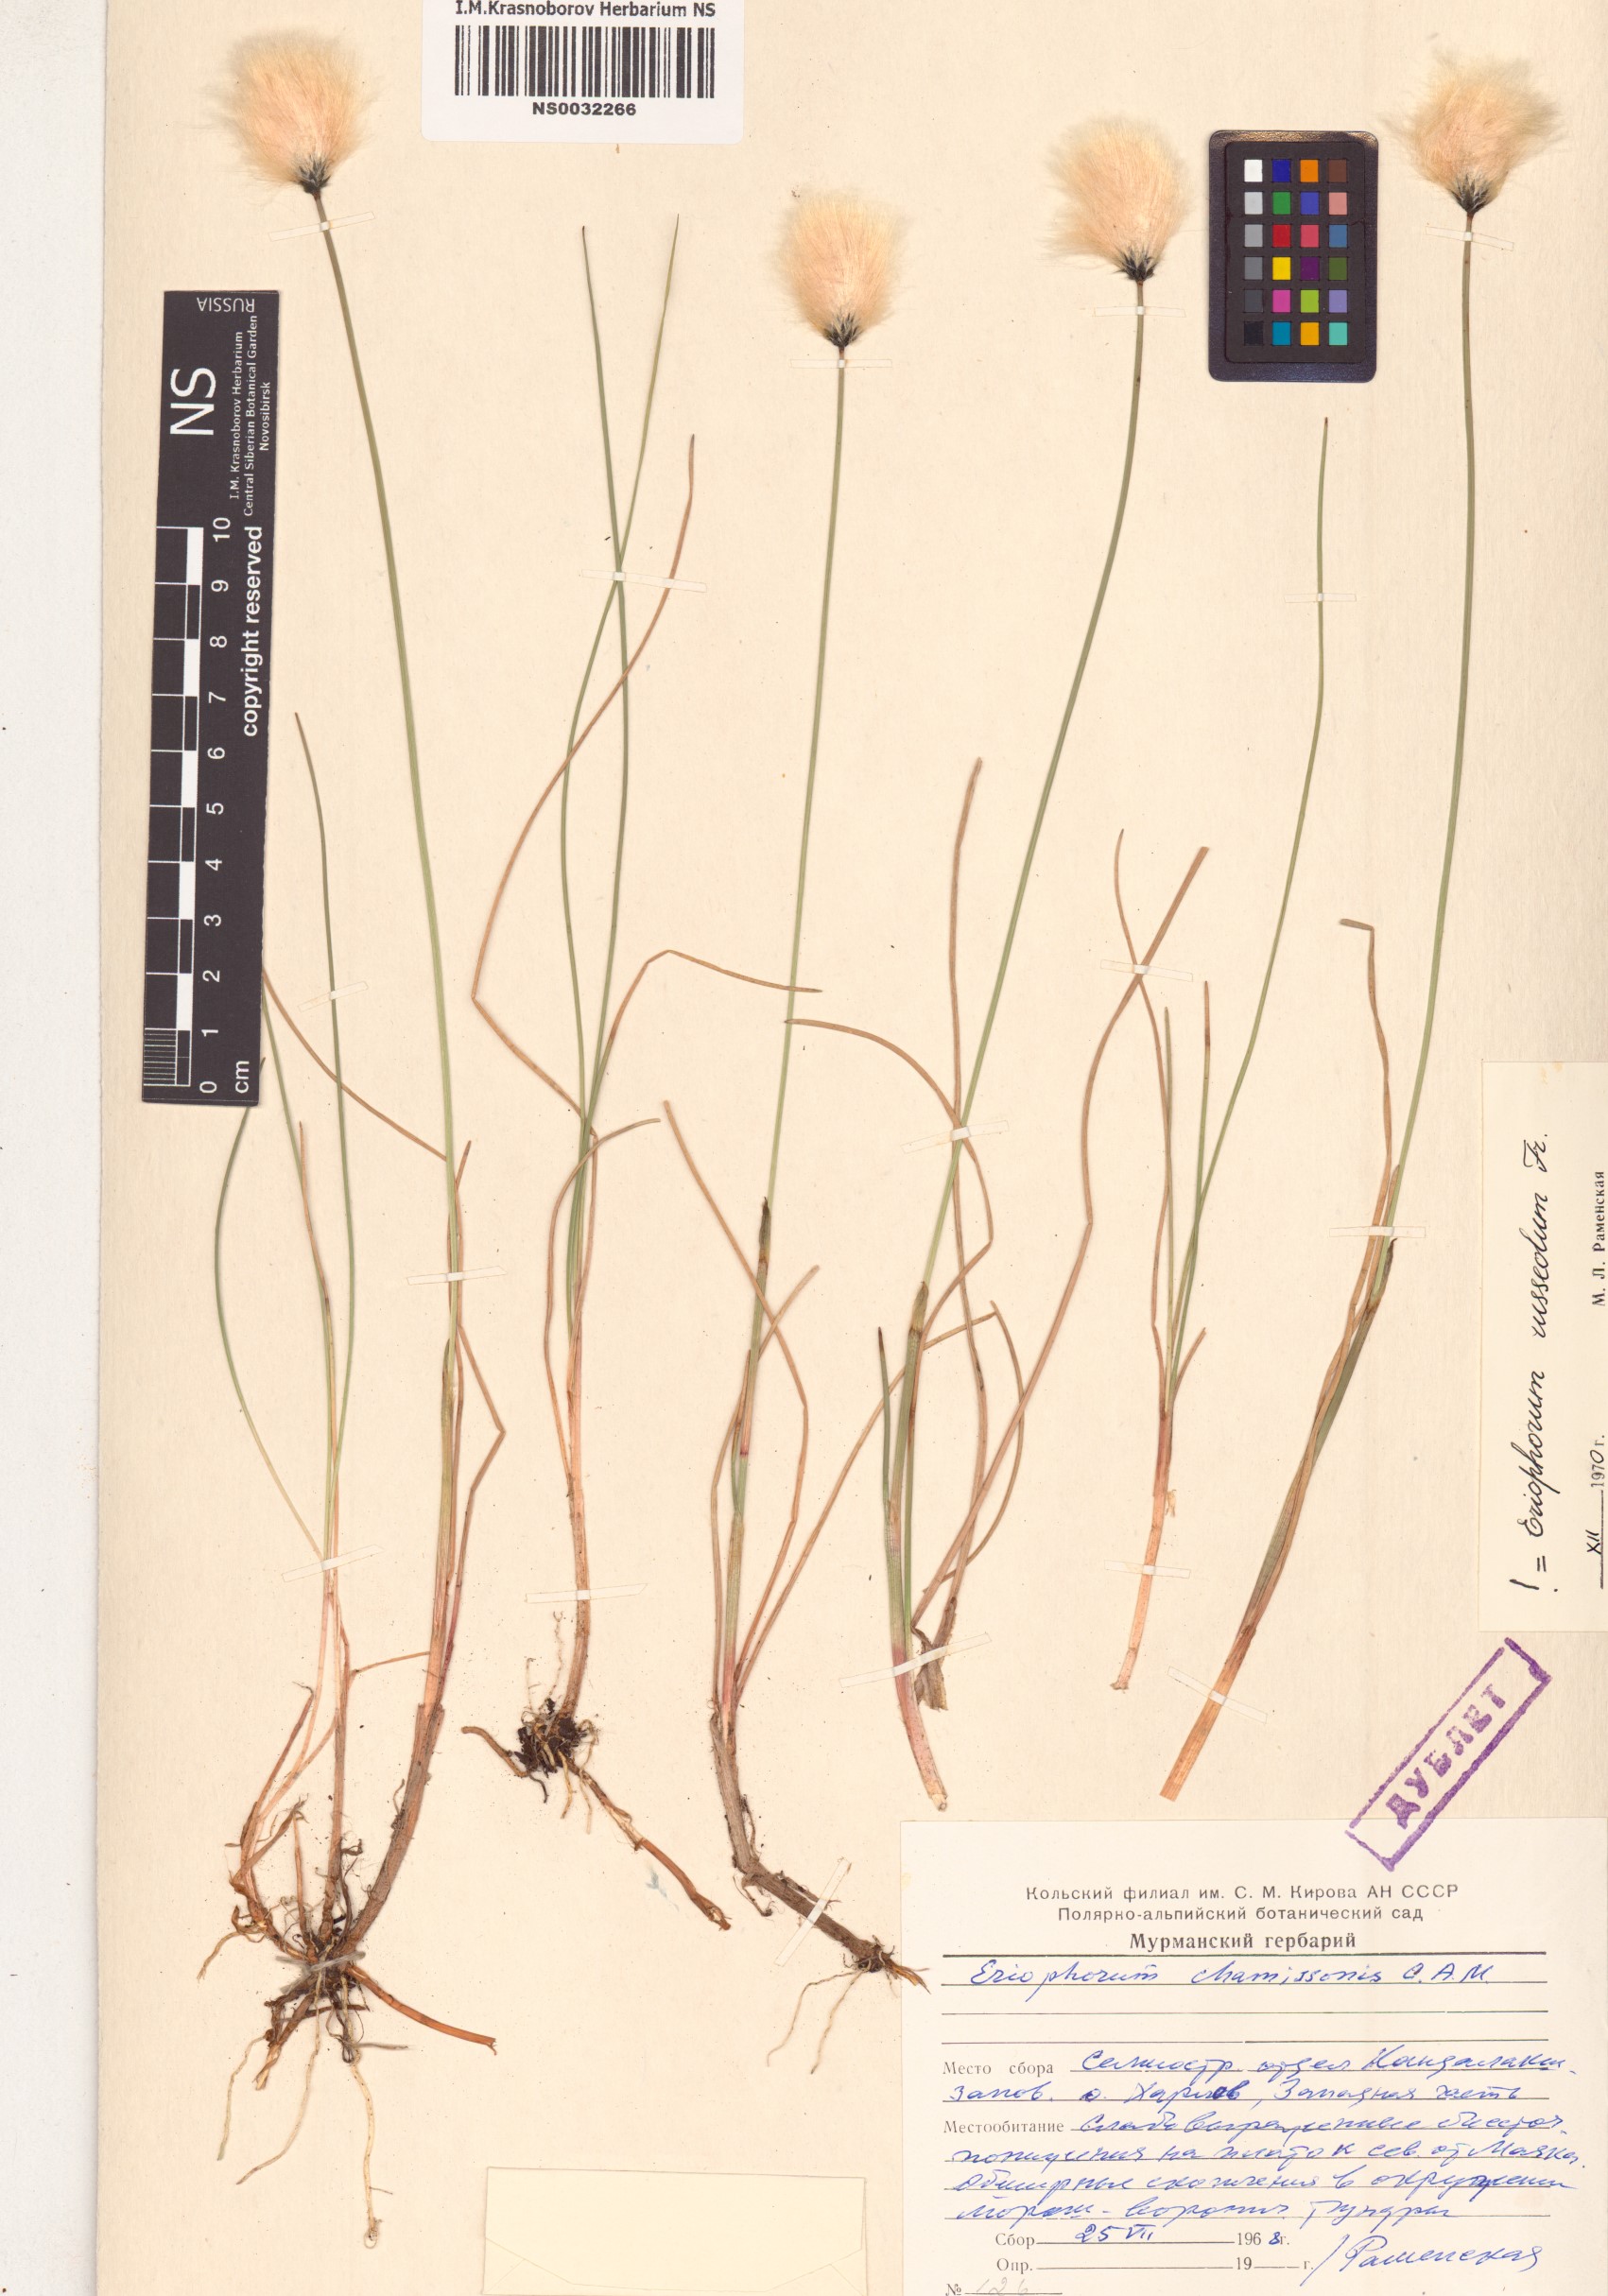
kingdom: Plantae
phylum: Tracheophyta
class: Liliopsida
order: Poales
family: Cyperaceae
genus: Eriophorum
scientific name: Eriophorum chamissonis
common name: Chamisso's cottongrass
